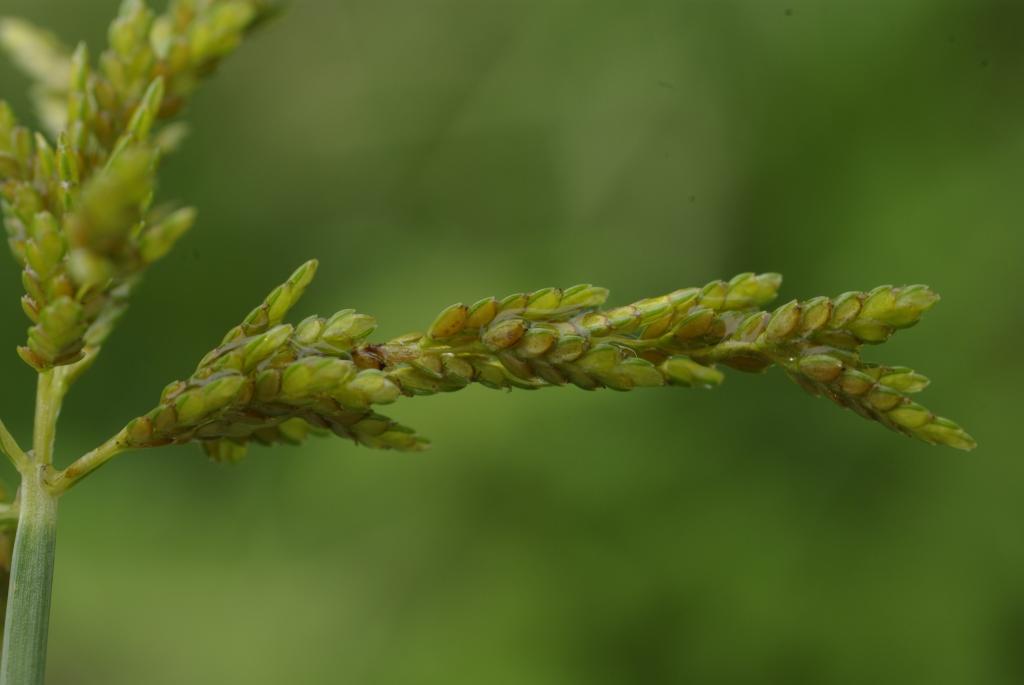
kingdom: Plantae
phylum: Tracheophyta
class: Liliopsida
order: Poales
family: Cyperaceae
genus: Cyperus
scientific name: Cyperus iria
